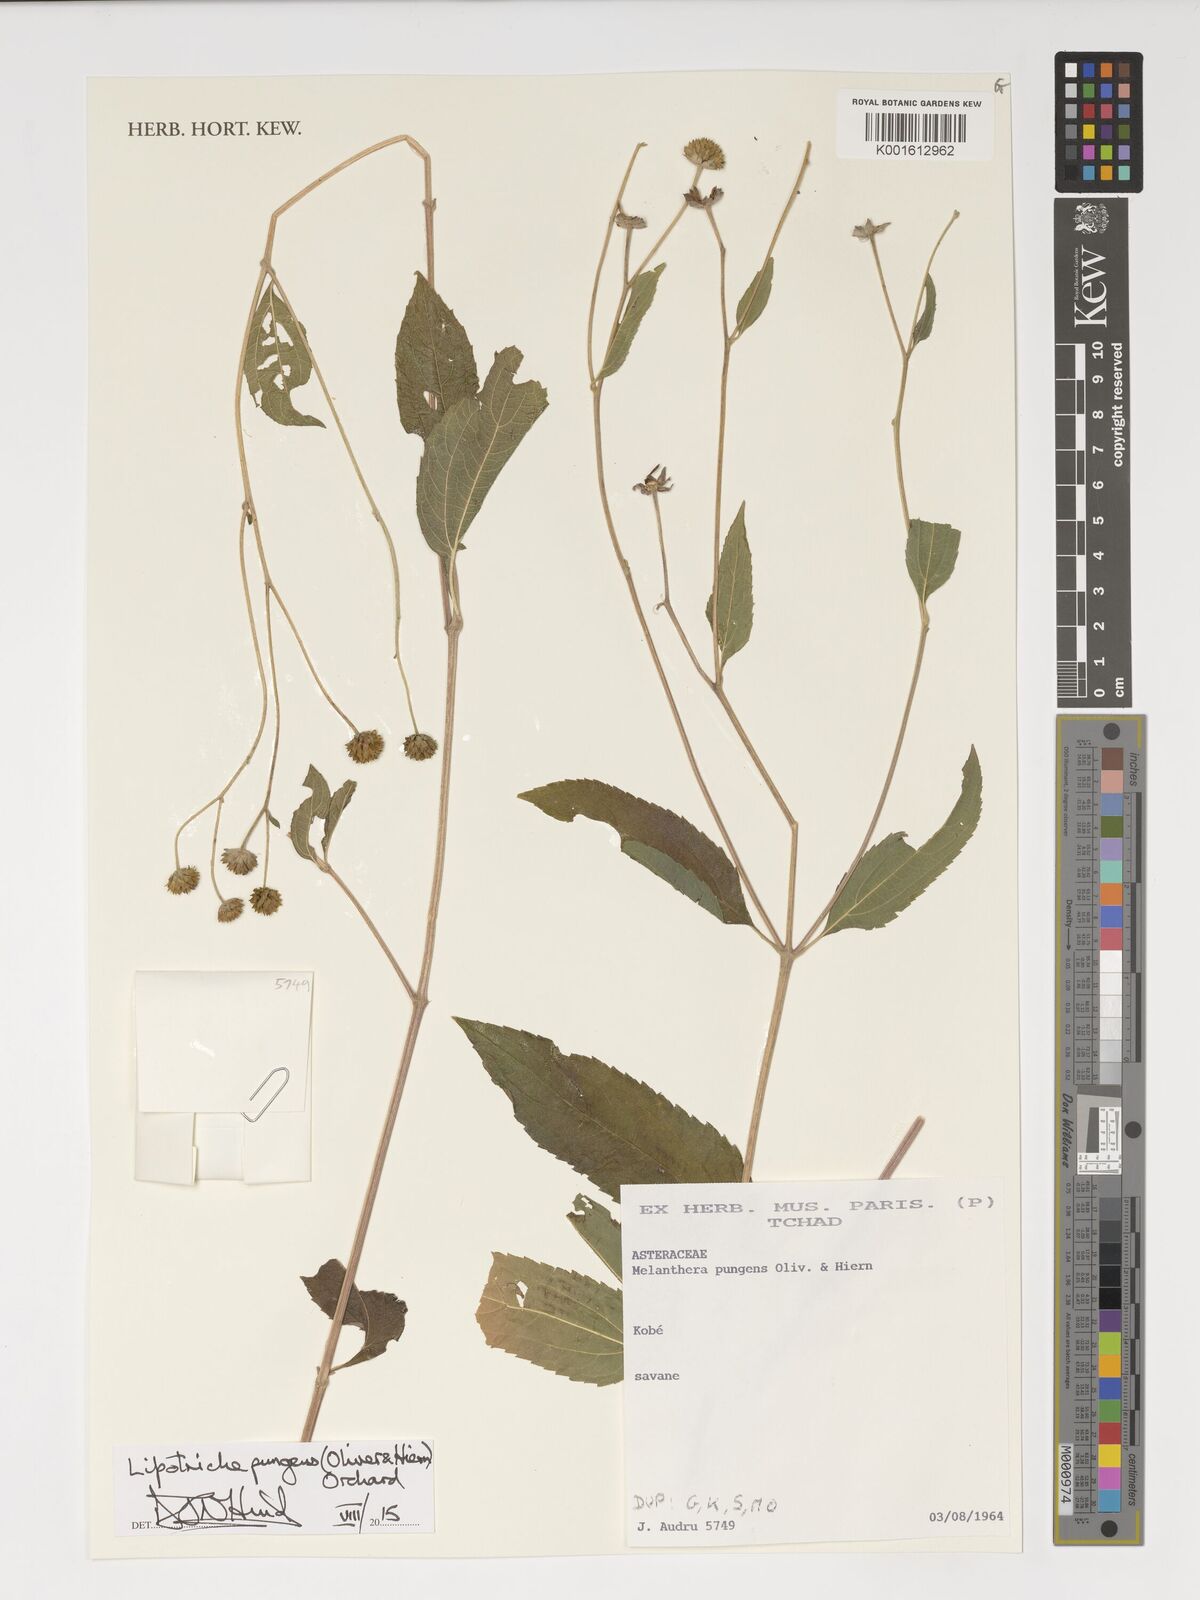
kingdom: Plantae
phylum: Tracheophyta
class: Magnoliopsida
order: Asterales
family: Asteraceae
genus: Lipotriche
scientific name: Lipotriche pungens
